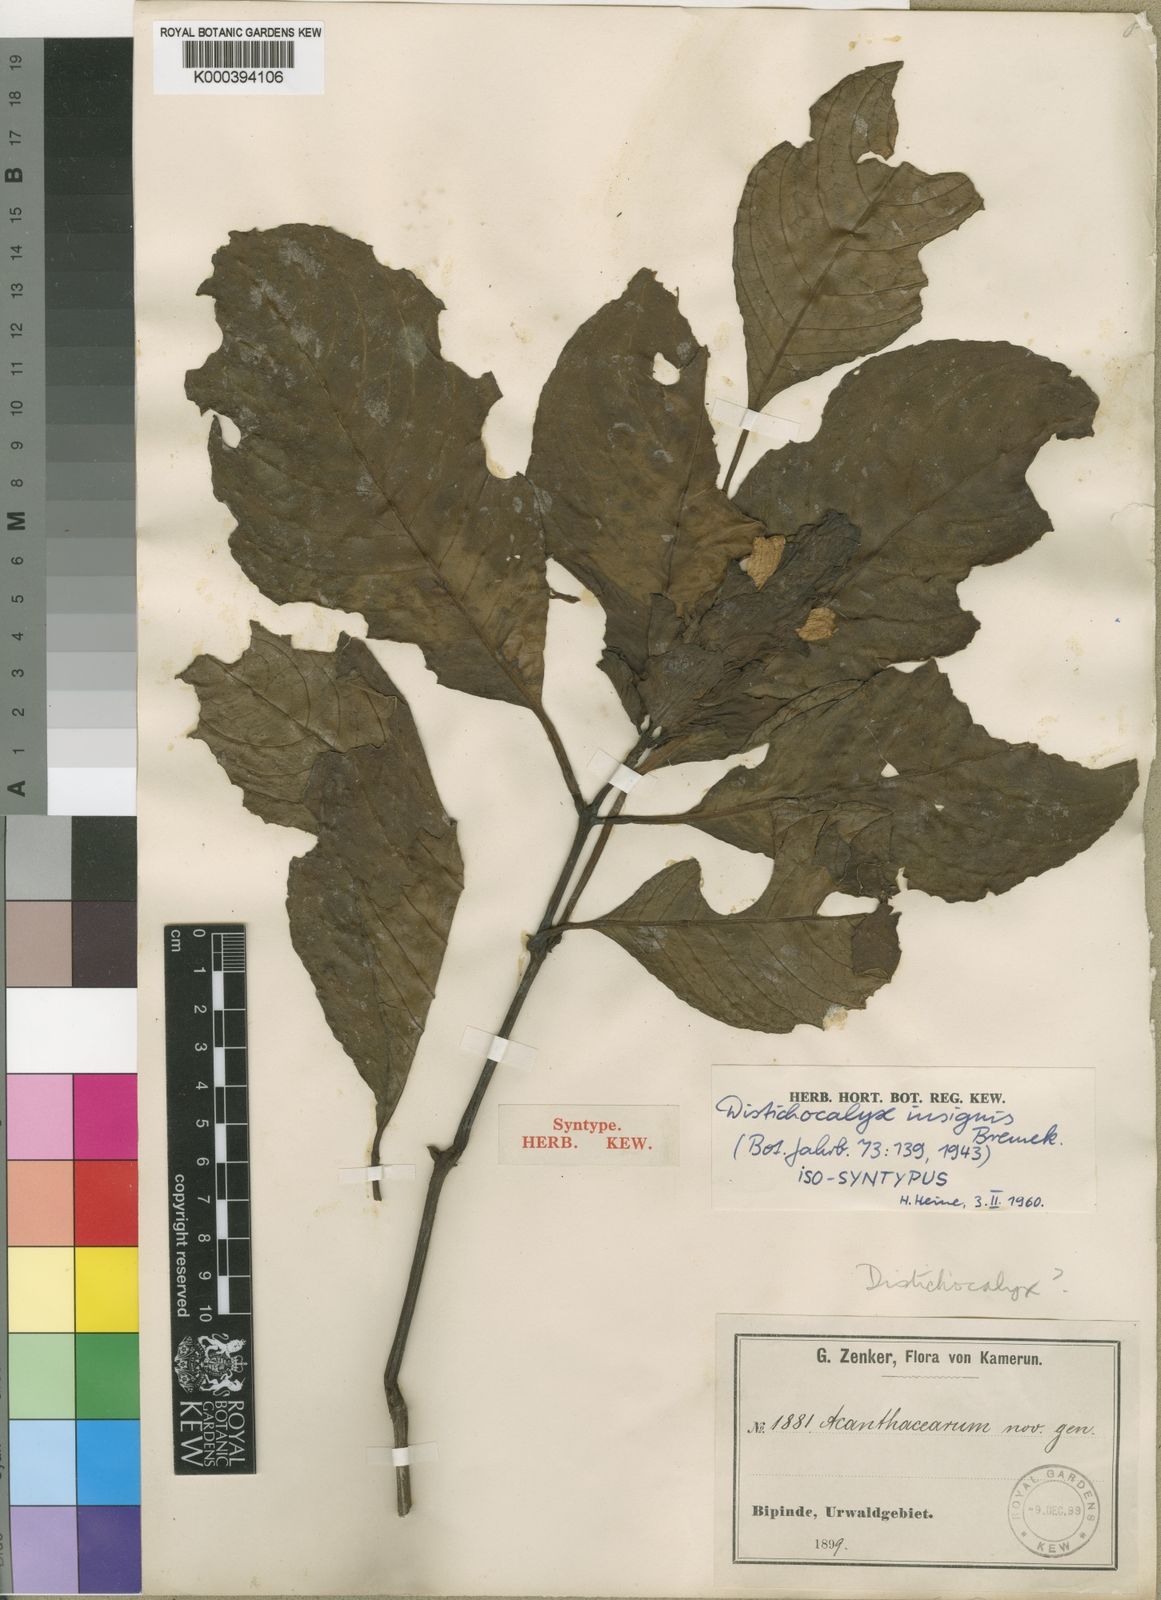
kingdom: Plantae
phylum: Tracheophyta
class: Magnoliopsida
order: Lamiales
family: Acanthaceae
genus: Dischistocalyx
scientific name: Dischistocalyx grandifolius
